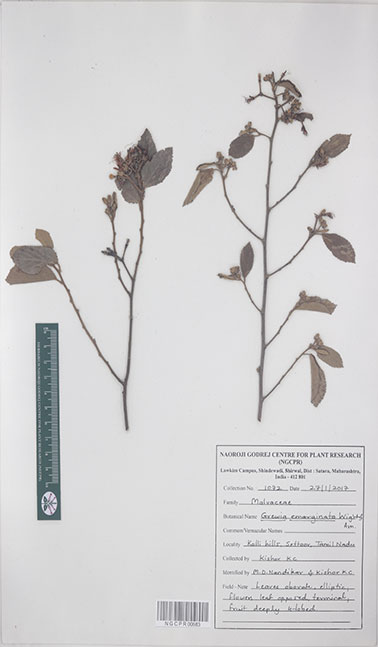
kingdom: Plantae
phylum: Tracheophyta
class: Magnoliopsida
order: Malvales
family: Malvaceae
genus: Grewia
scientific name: Grewia oppositifolia
